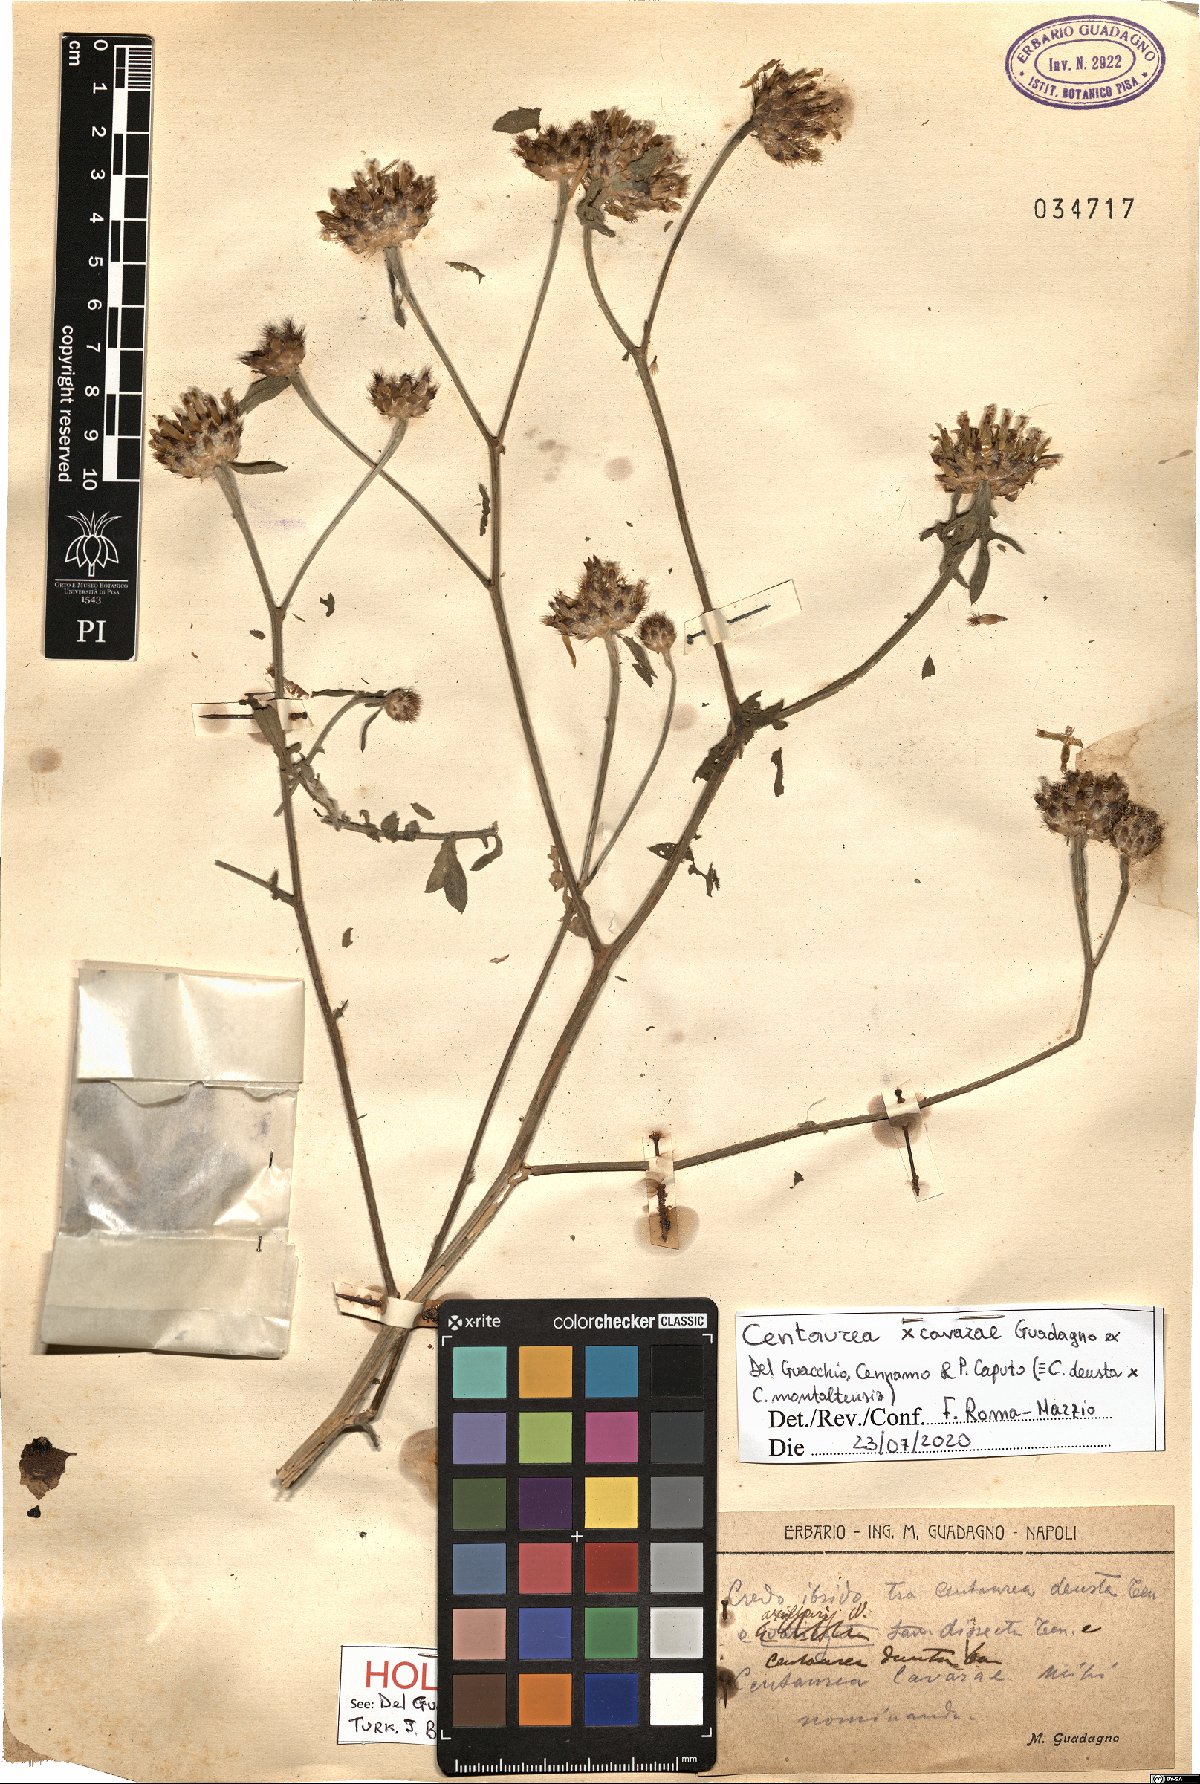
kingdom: Plantae
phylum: Tracheophyta
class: Magnoliopsida
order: Asterales
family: Asteraceae
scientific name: Asteraceae
